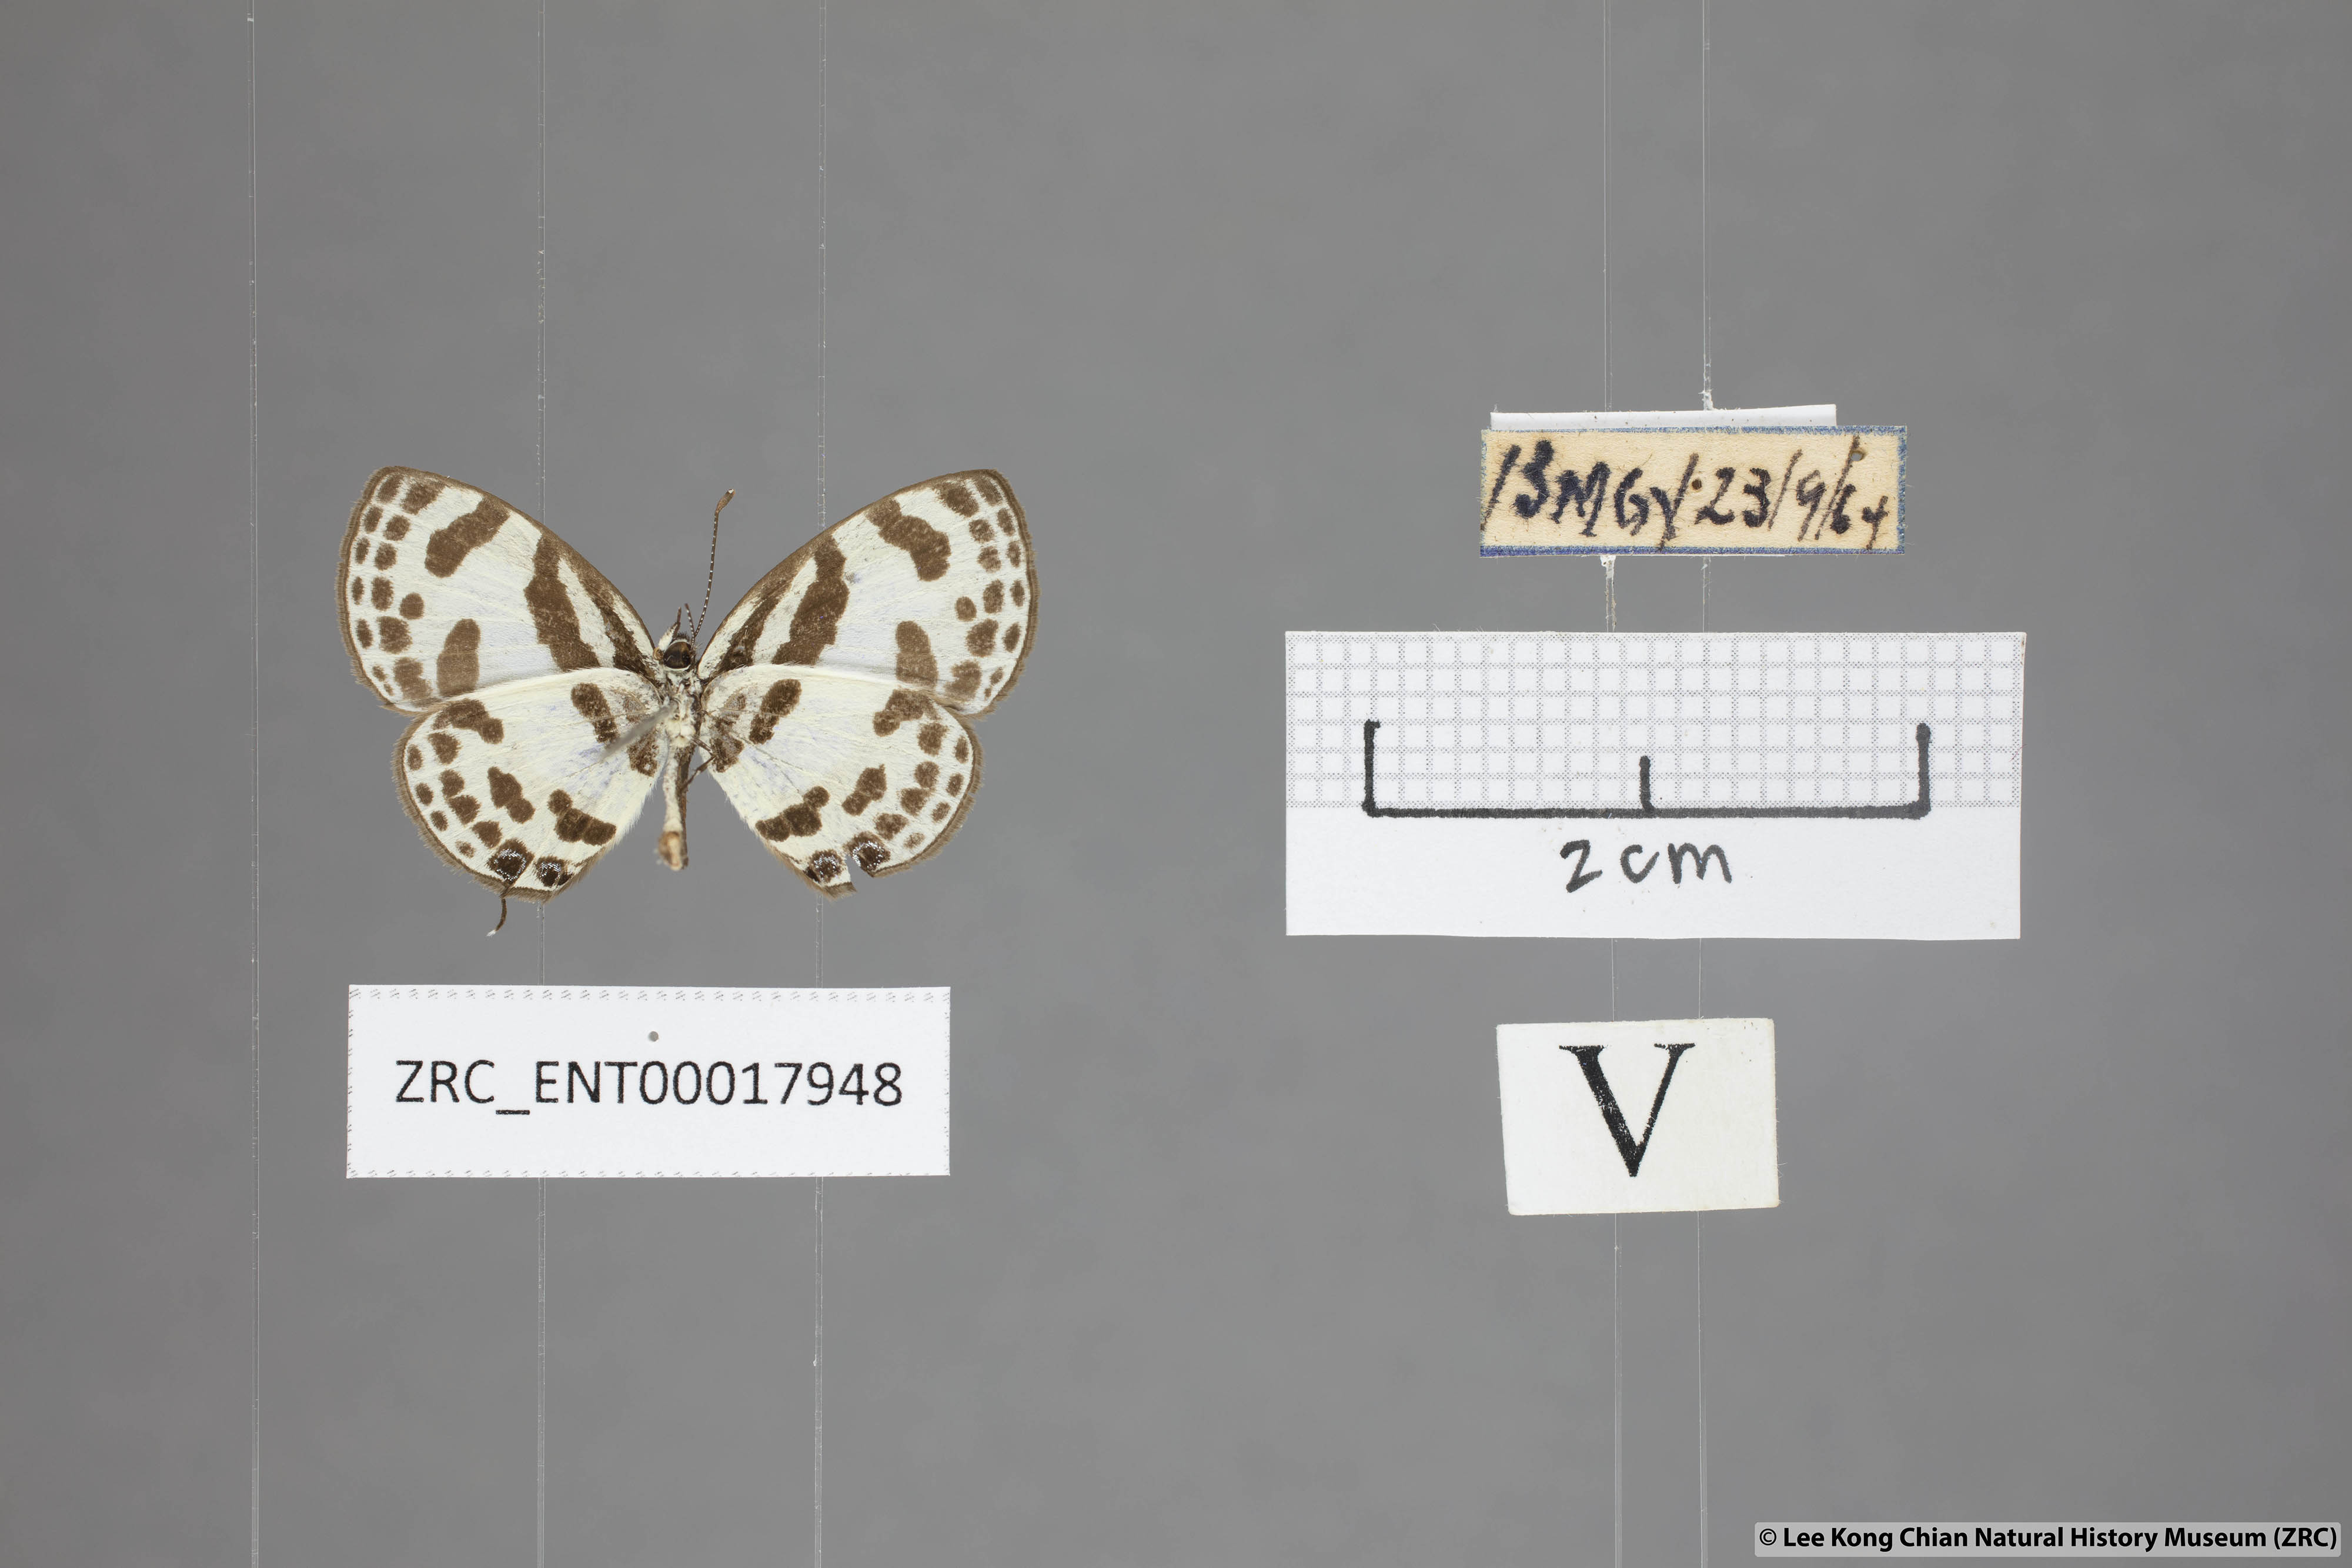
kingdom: Animalia
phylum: Arthropoda
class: Insecta
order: Lepidoptera
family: Lycaenidae
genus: Discolampa
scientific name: Discolampa ethion
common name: Banded blue pierrot
